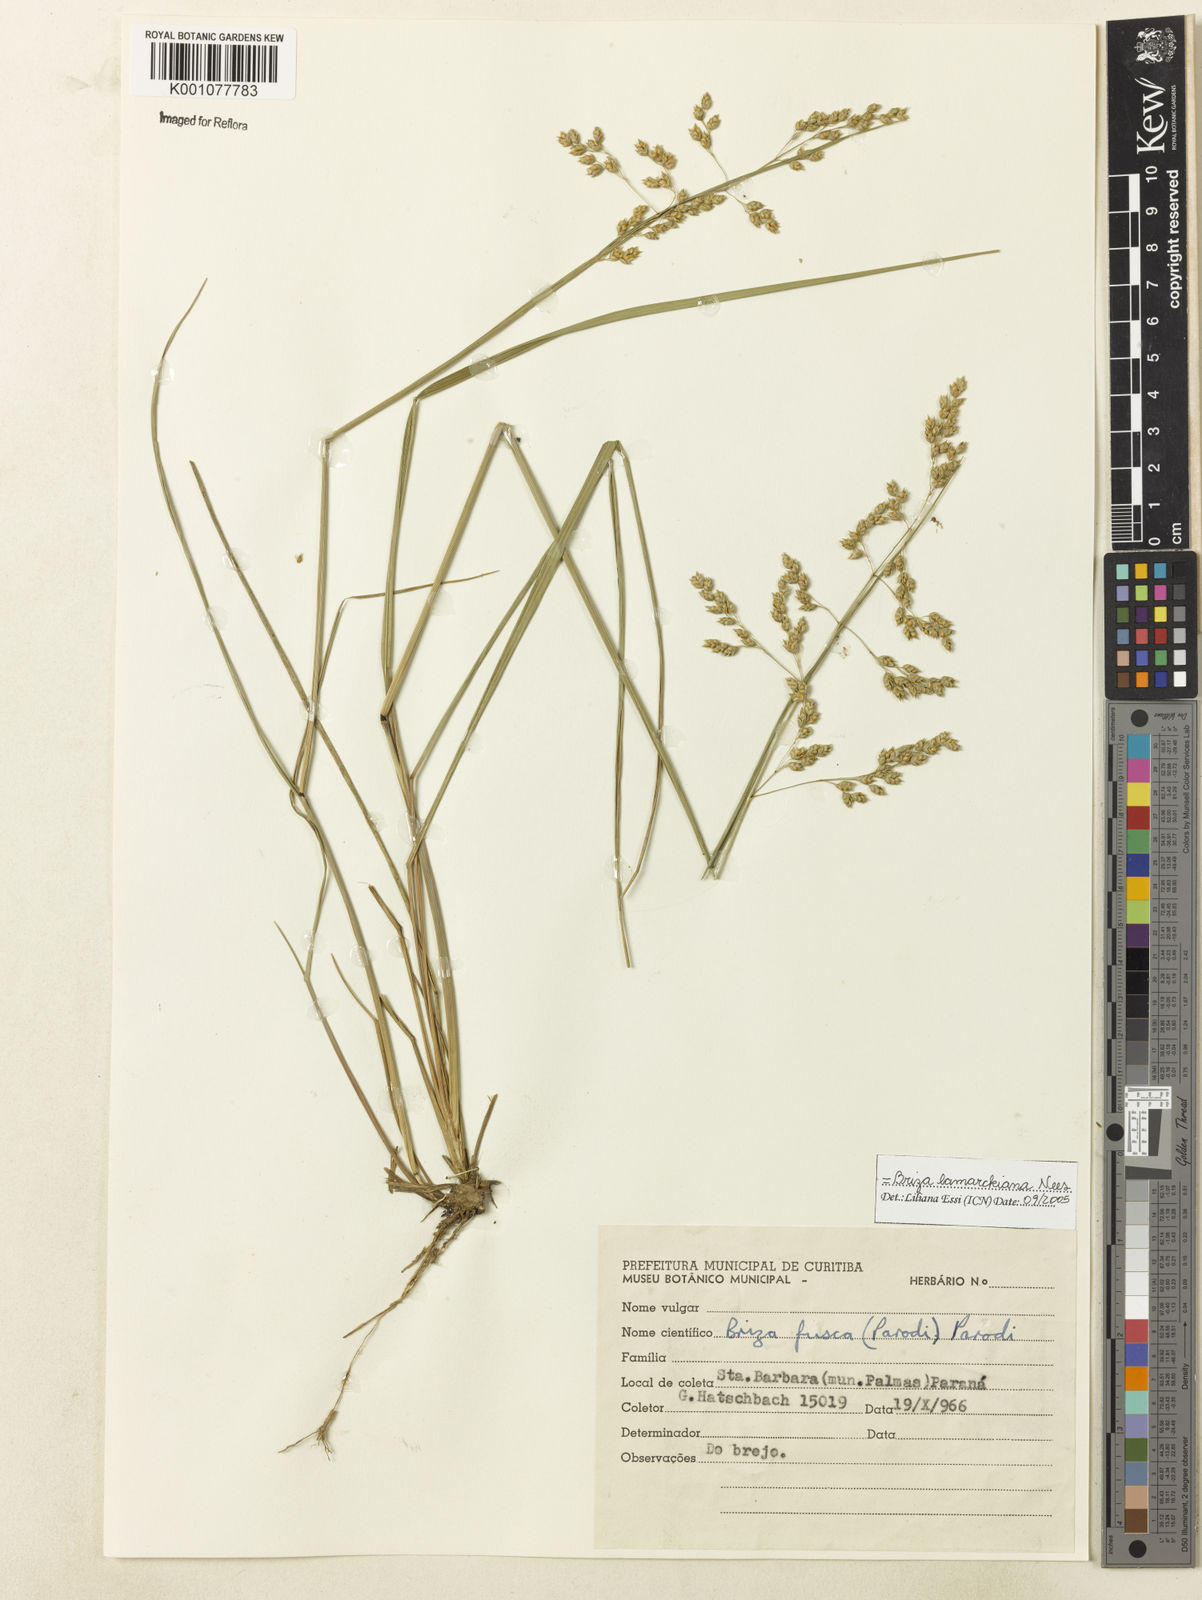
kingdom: Plantae
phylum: Tracheophyta
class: Liliopsida
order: Poales
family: Poaceae
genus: Chascolytrum
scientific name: Chascolytrum lamarckianum
